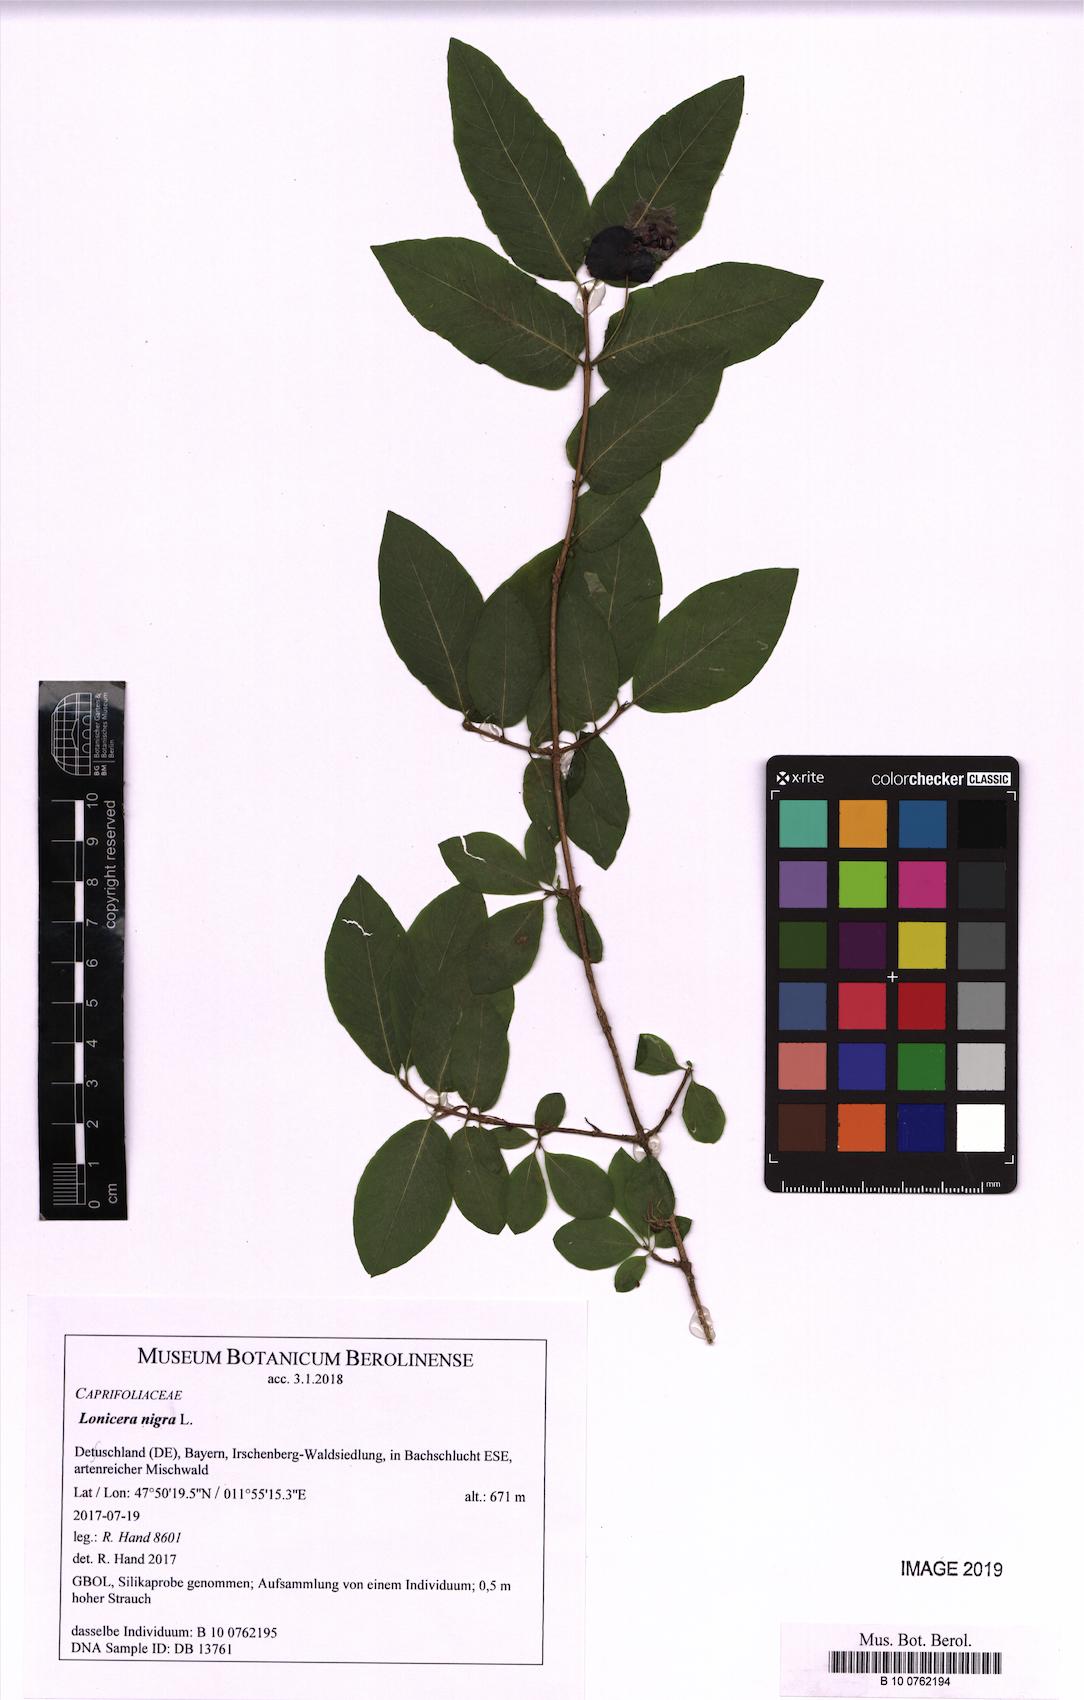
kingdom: Plantae
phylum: Tracheophyta
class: Magnoliopsida
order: Dipsacales
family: Caprifoliaceae
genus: Lonicera
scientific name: Lonicera nigra
